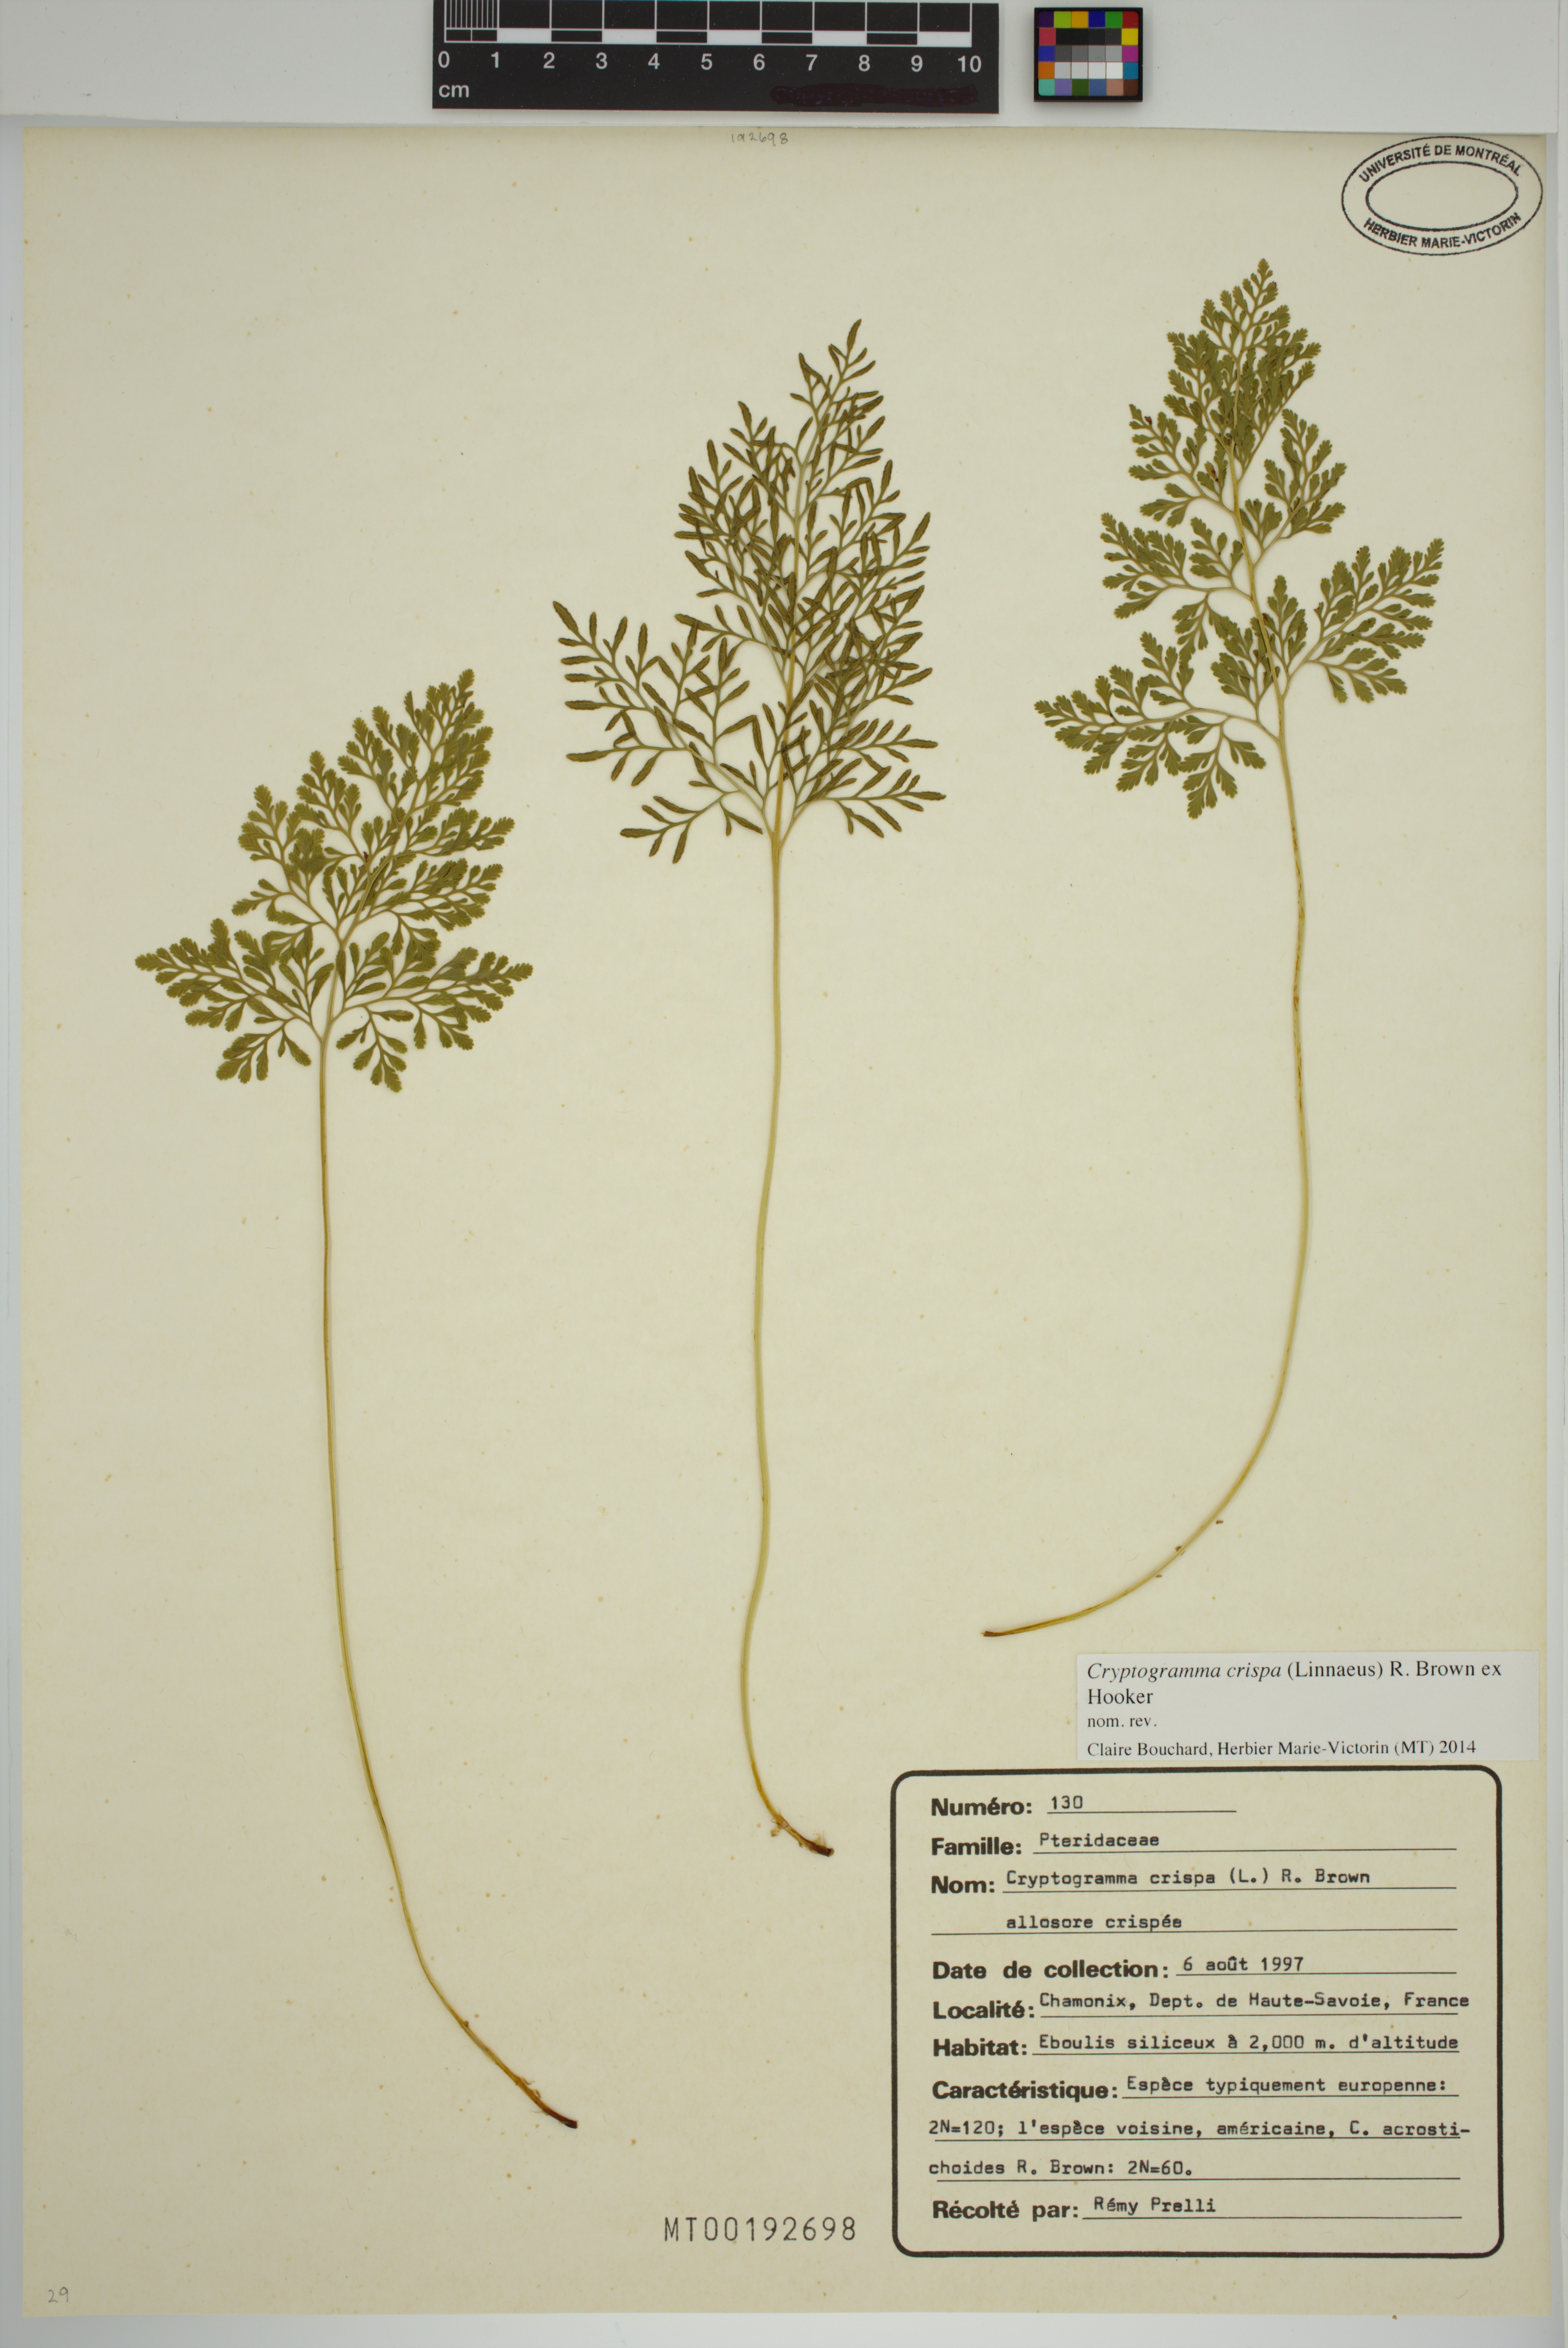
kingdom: Plantae
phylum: Tracheophyta
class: Polypodiopsida
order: Polypodiales
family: Pteridaceae
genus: Cryptogramma
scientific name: Cryptogramma crispa
